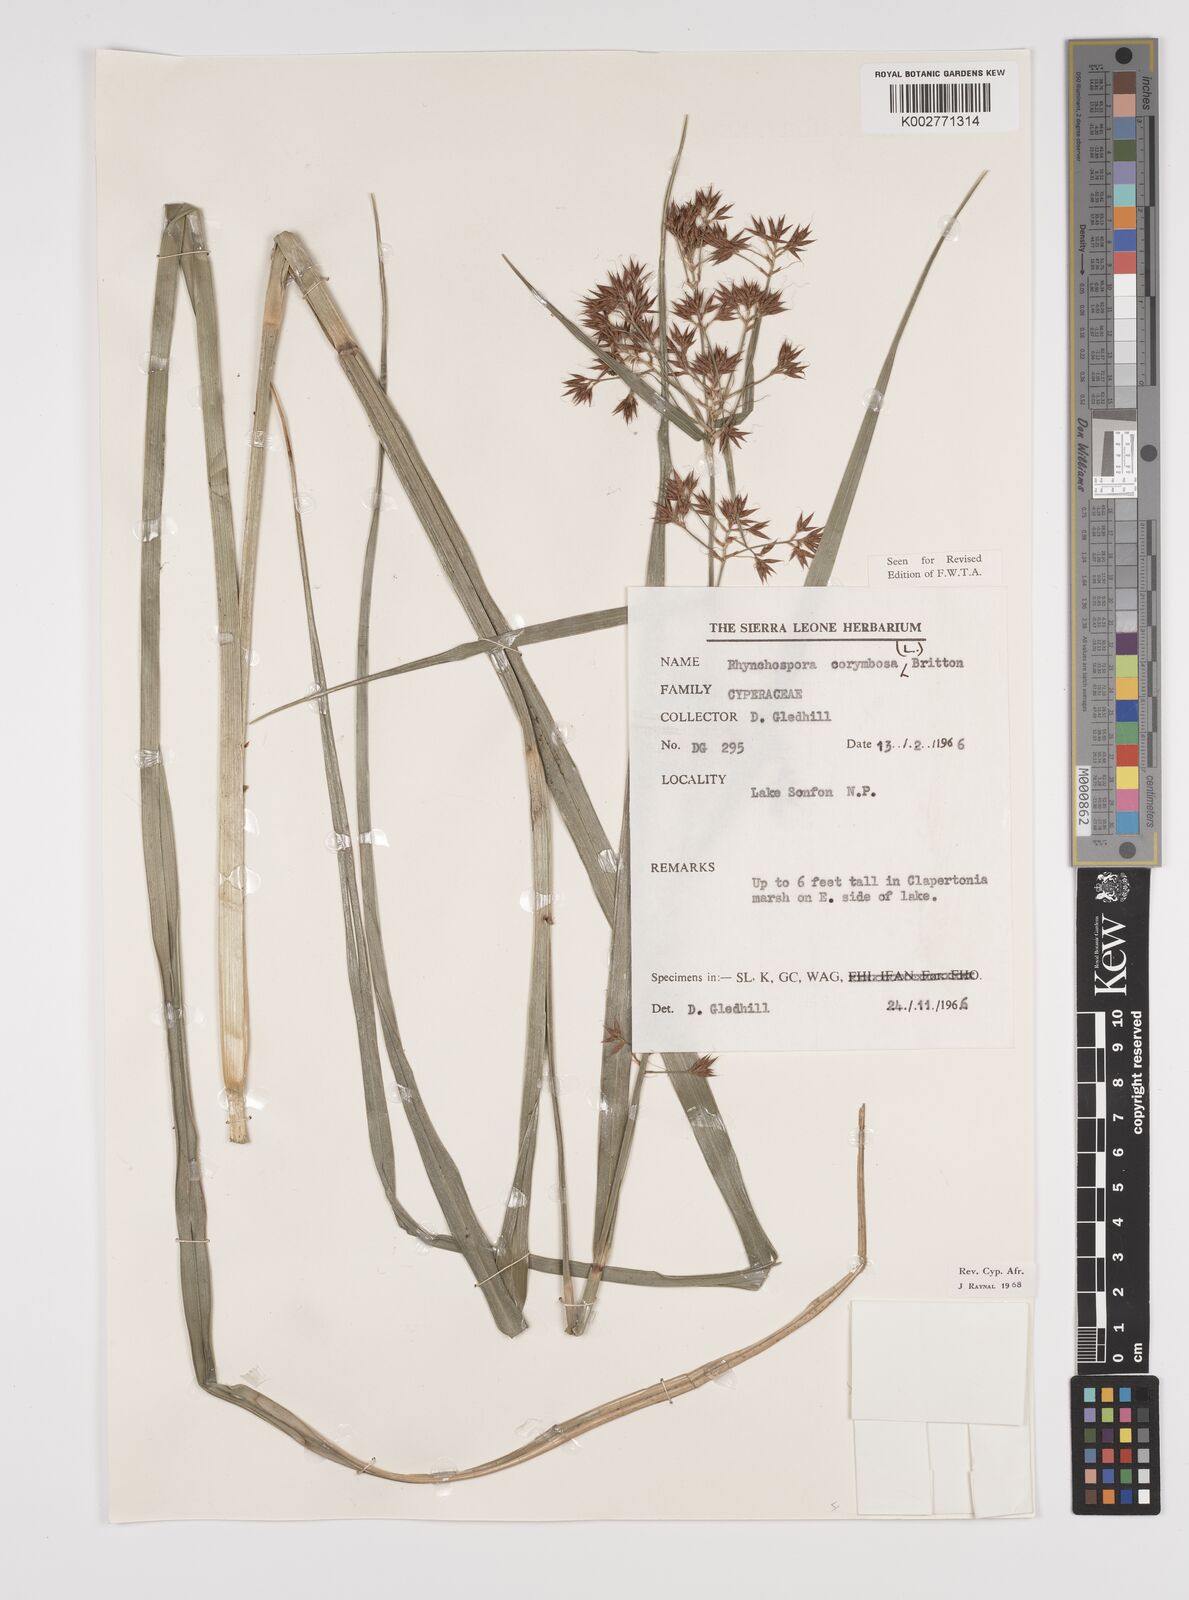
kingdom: Plantae
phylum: Tracheophyta
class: Liliopsida
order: Poales
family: Cyperaceae
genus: Rhynchospora
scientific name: Rhynchospora corymbosa
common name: Golden beak sedge
